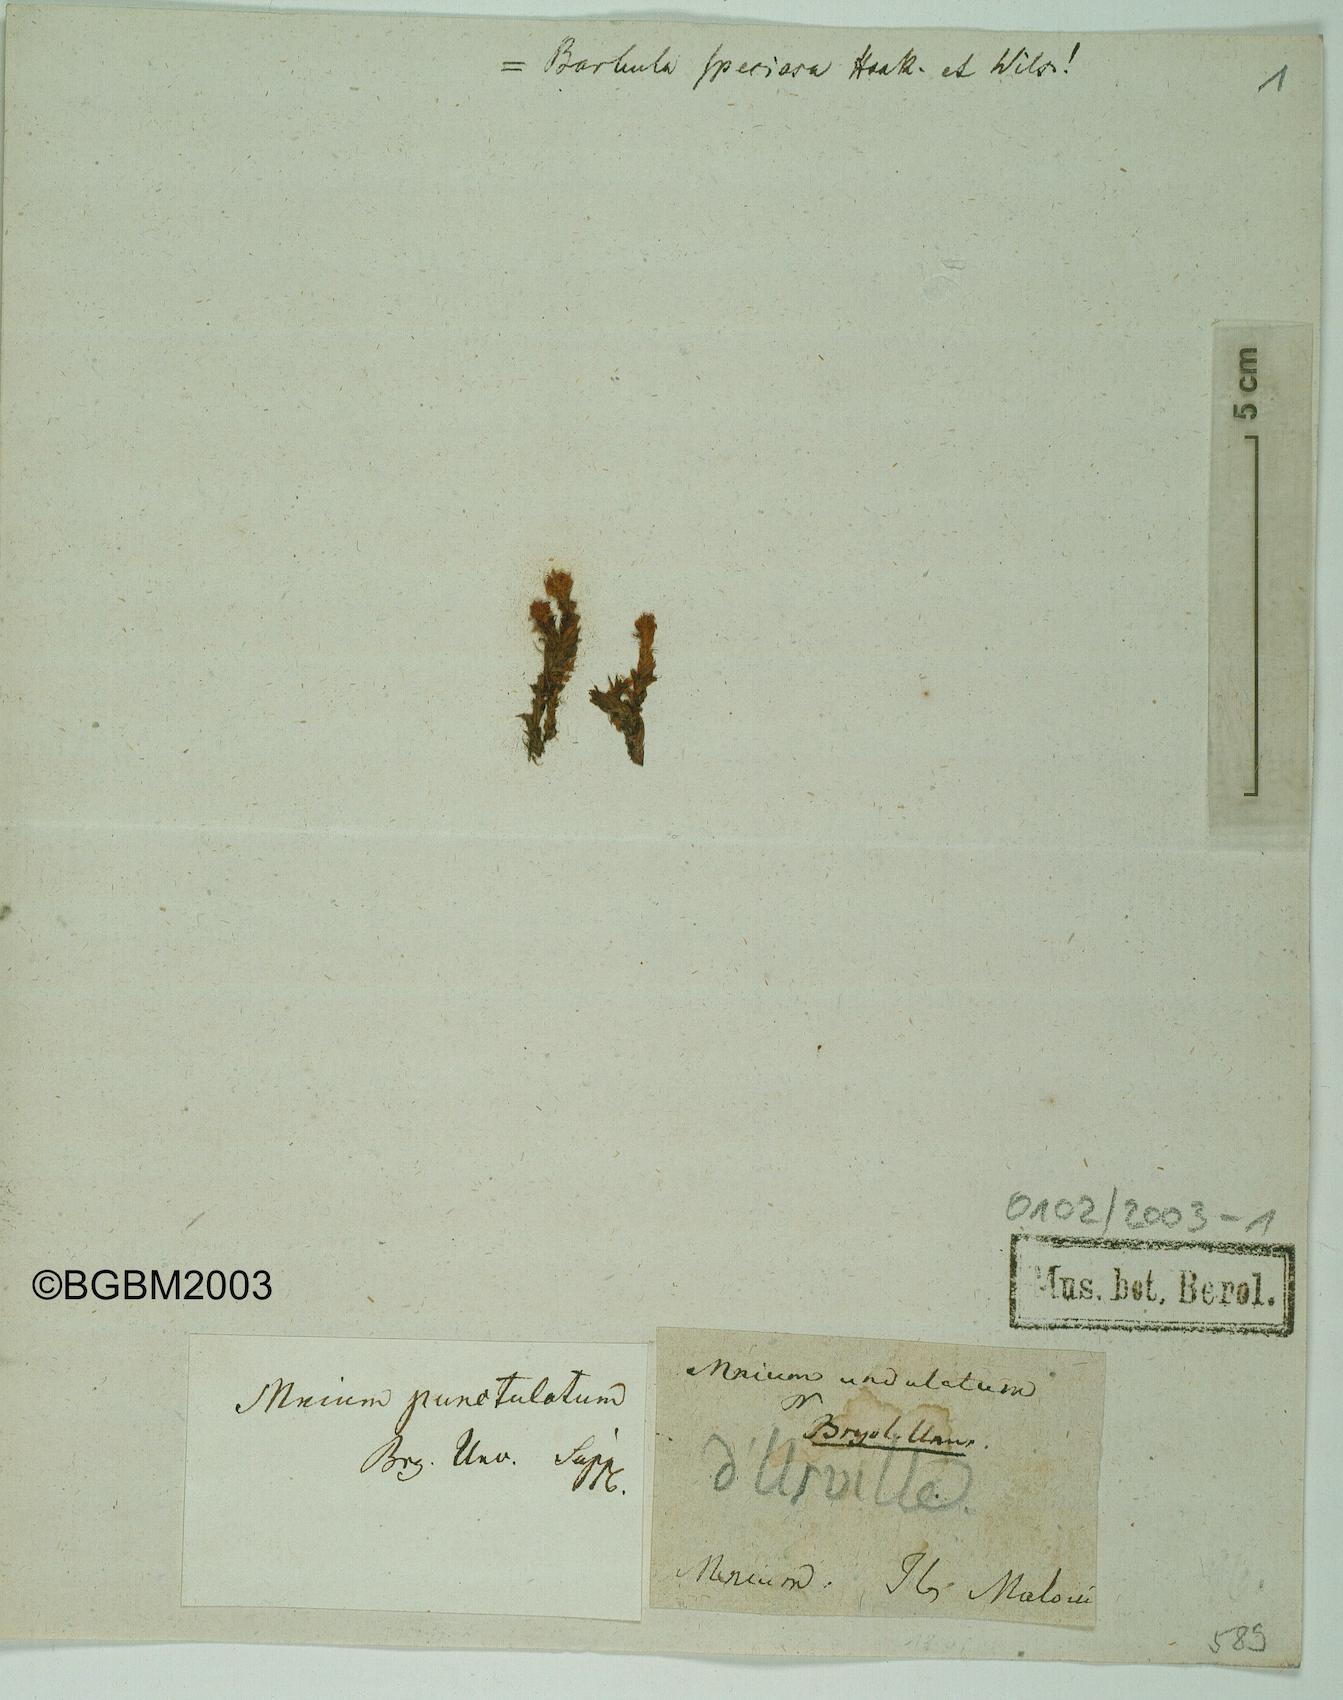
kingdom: Plantae
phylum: Bryophyta
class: Bryopsida
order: Bryales
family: Mniaceae
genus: Rhizomnium
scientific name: Rhizomnium punctatum
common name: Dotted leafy moss
